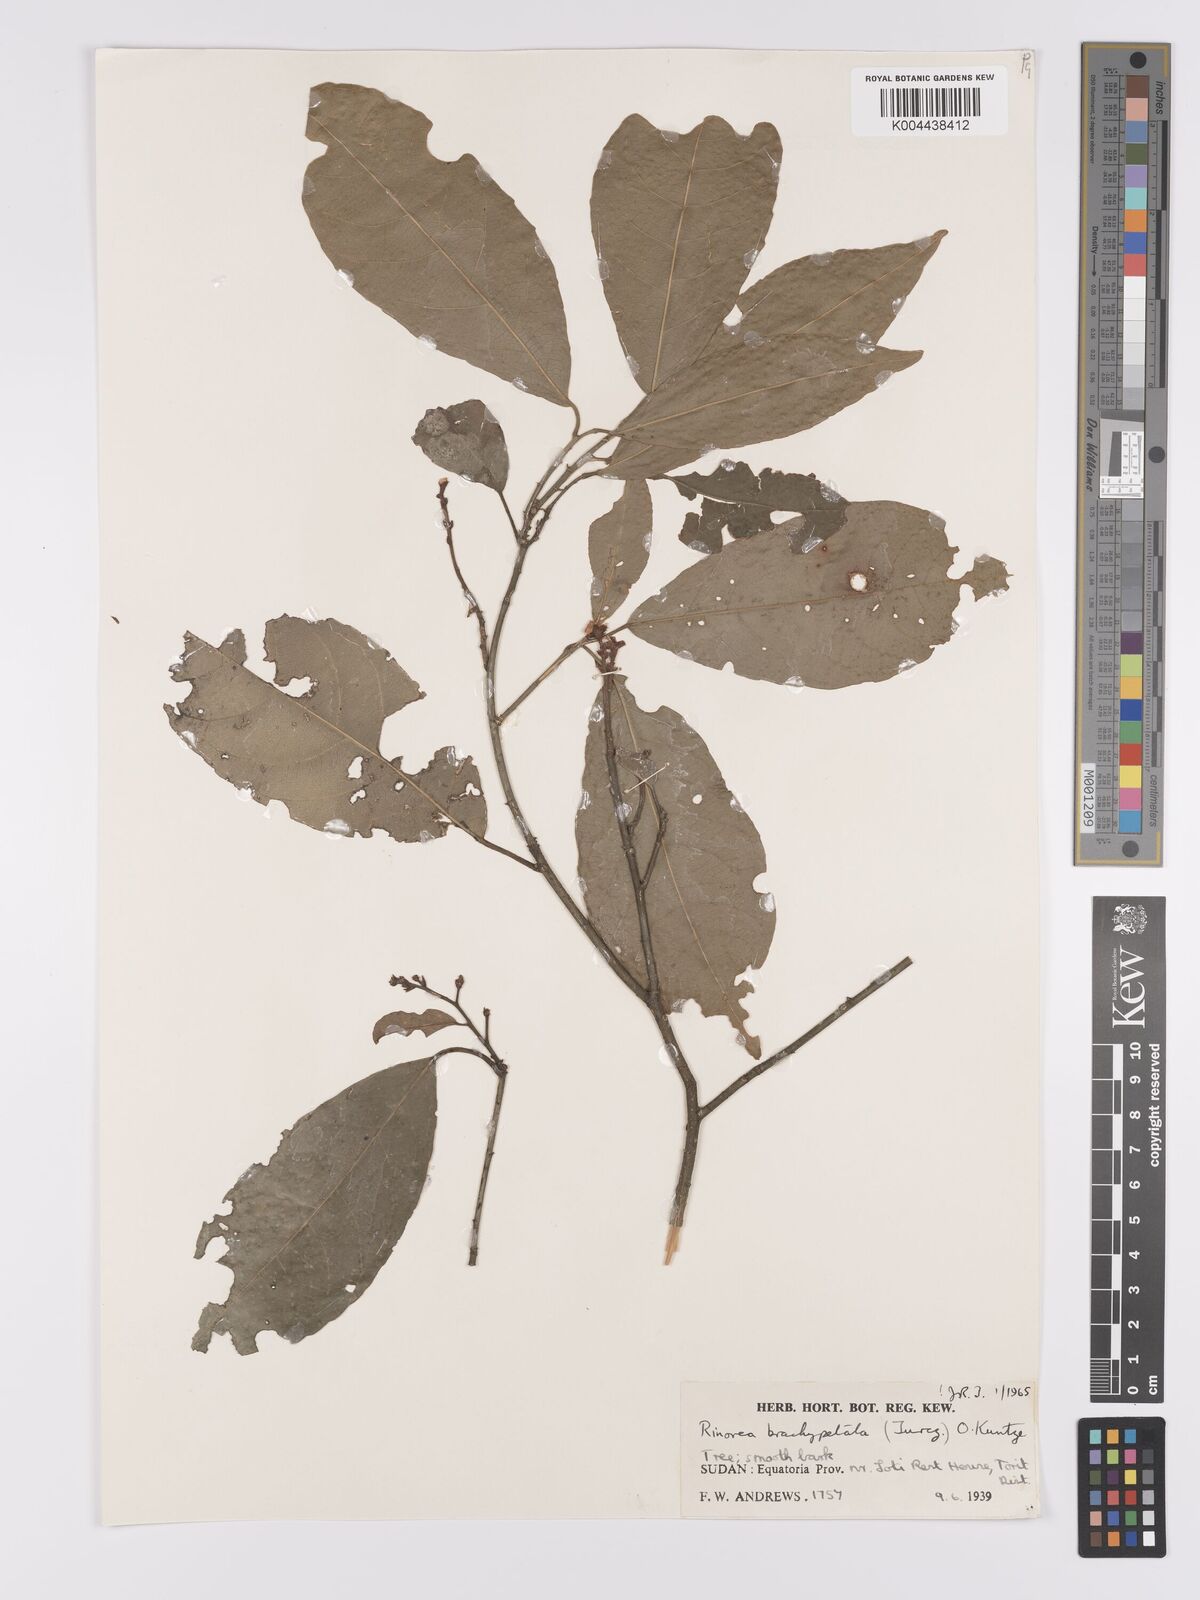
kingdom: Plantae
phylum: Tracheophyta
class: Magnoliopsida
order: Malpighiales
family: Violaceae
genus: Rinorea
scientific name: Rinorea brachypetala
